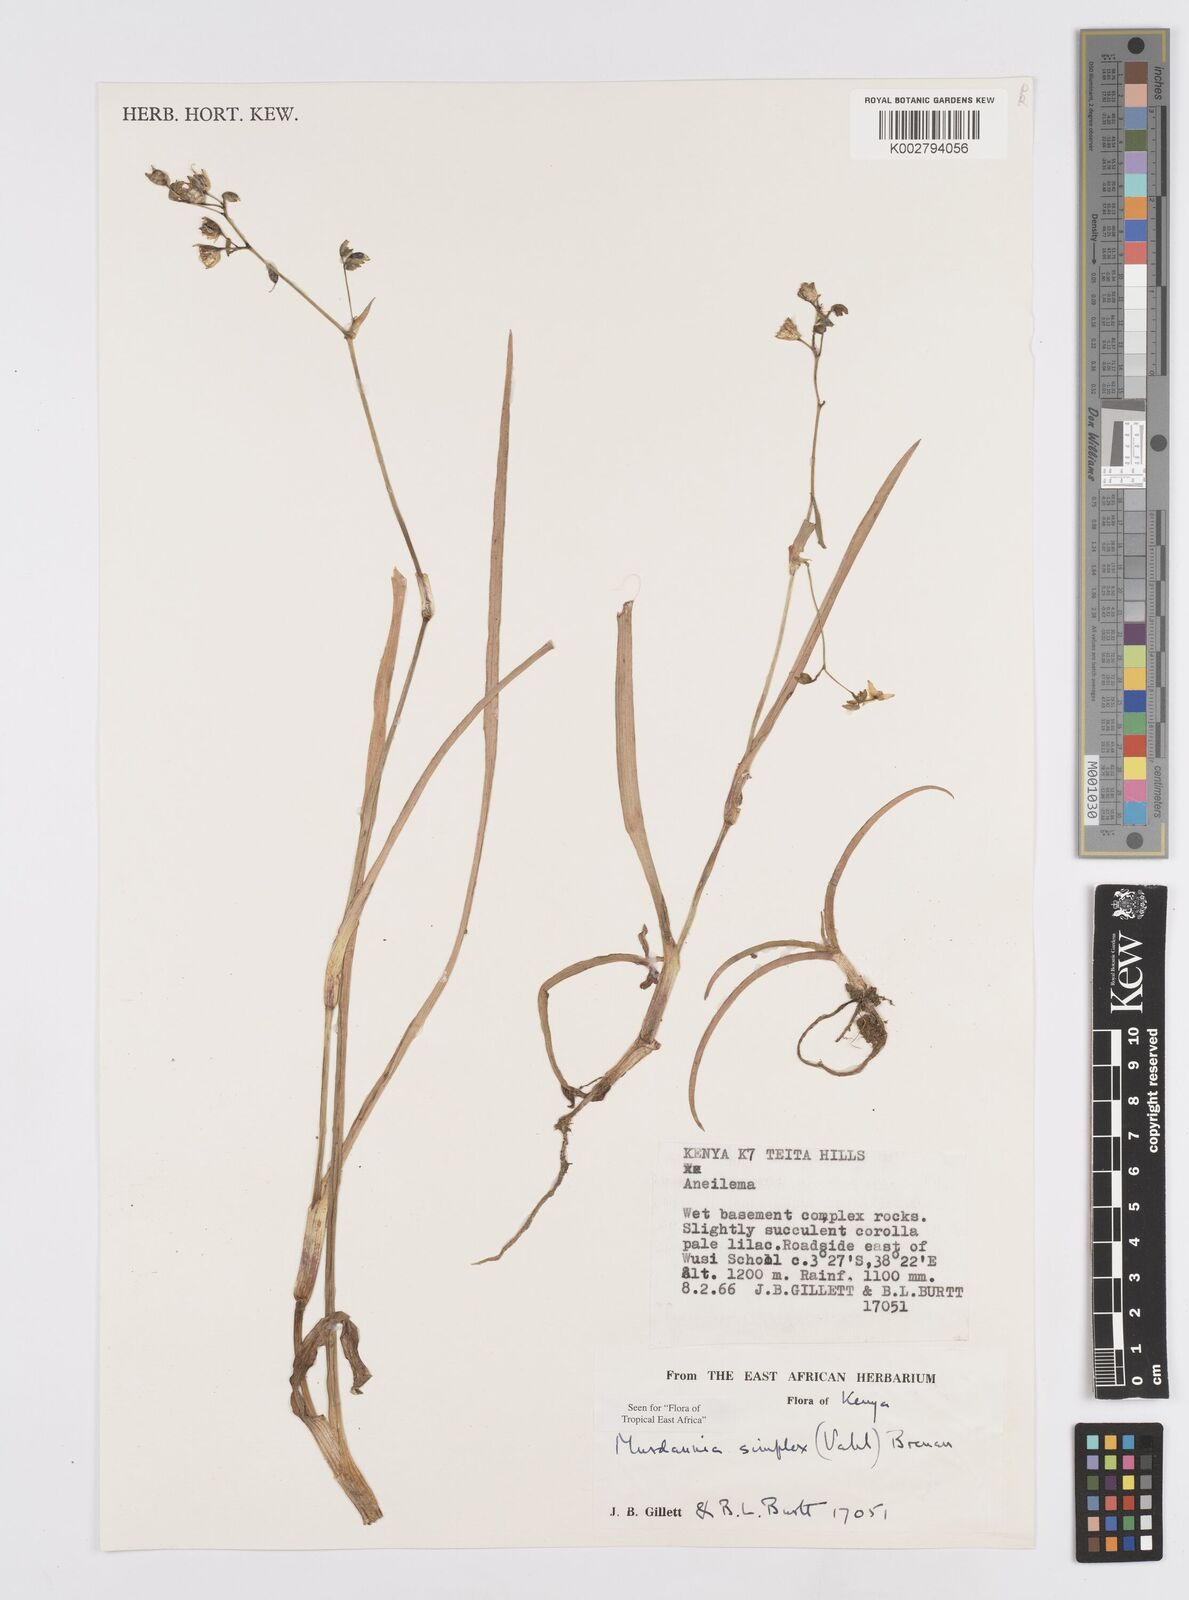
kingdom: Plantae
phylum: Tracheophyta
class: Liliopsida
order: Commelinales
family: Commelinaceae
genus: Murdannia
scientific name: Murdannia simplex
